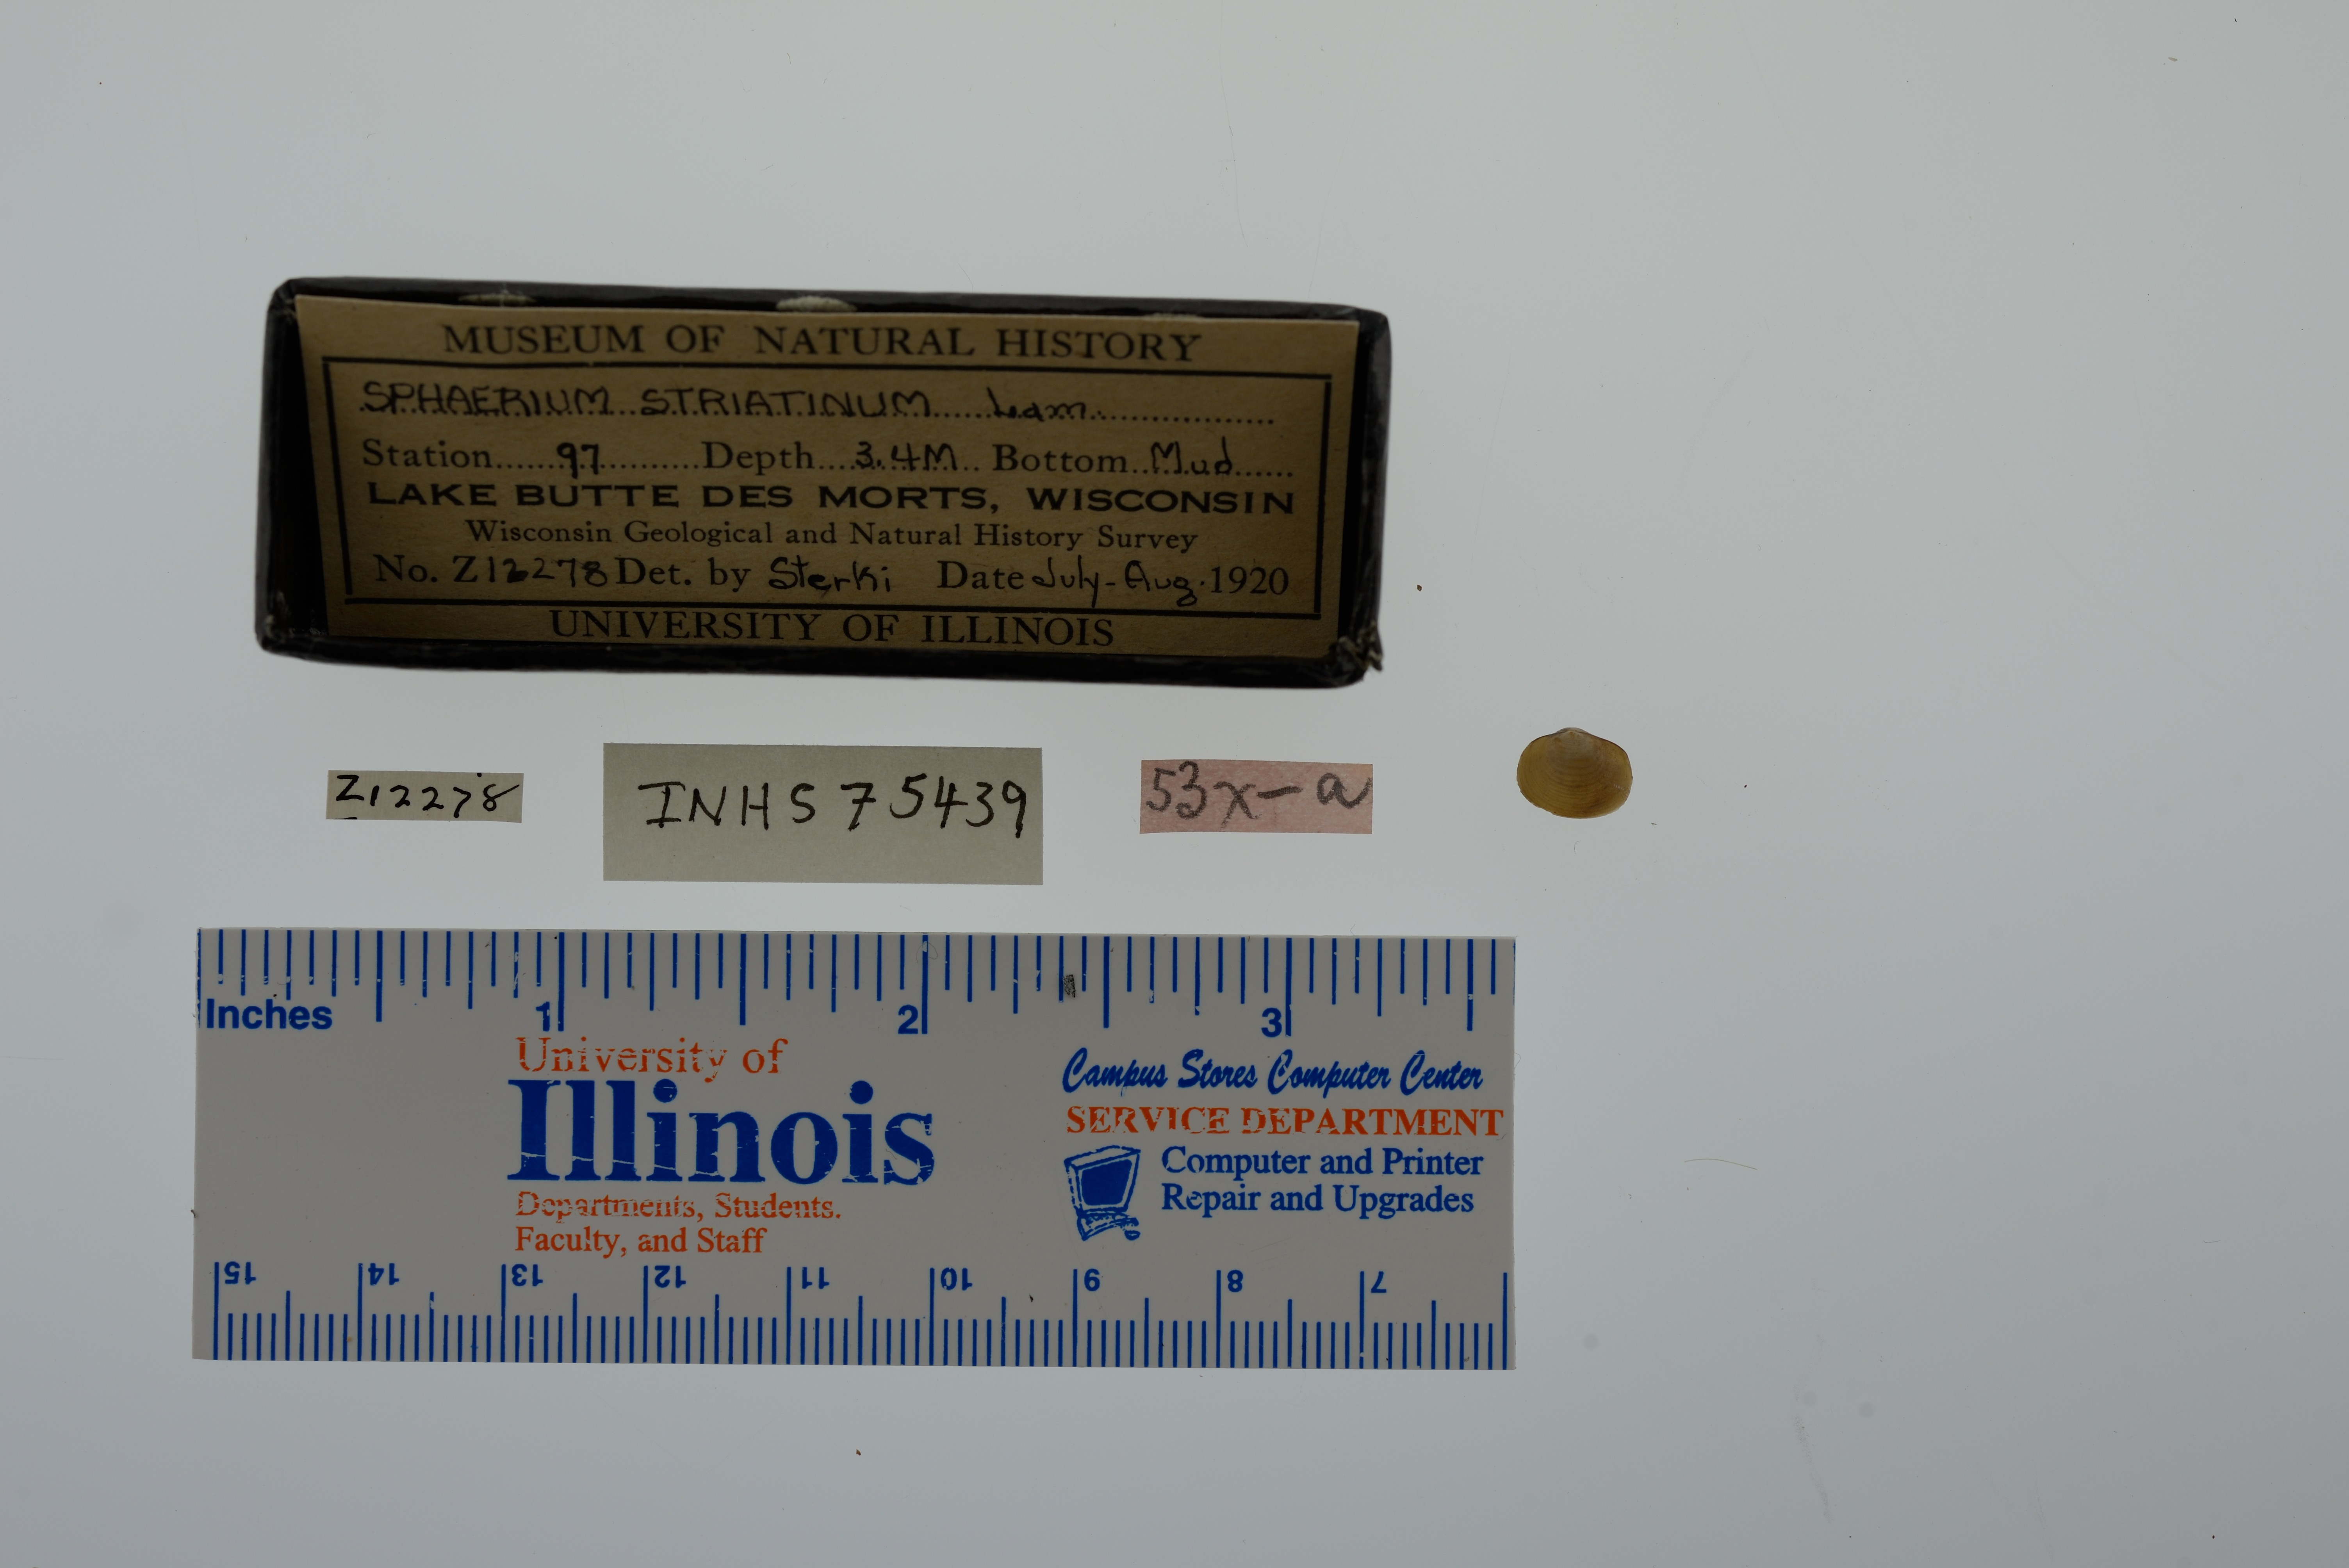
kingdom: Animalia
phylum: Mollusca
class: Bivalvia
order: Sphaeriida
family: Sphaeriidae
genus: Sphaerium
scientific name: Sphaerium striatinum
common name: Striated fingernailclam
